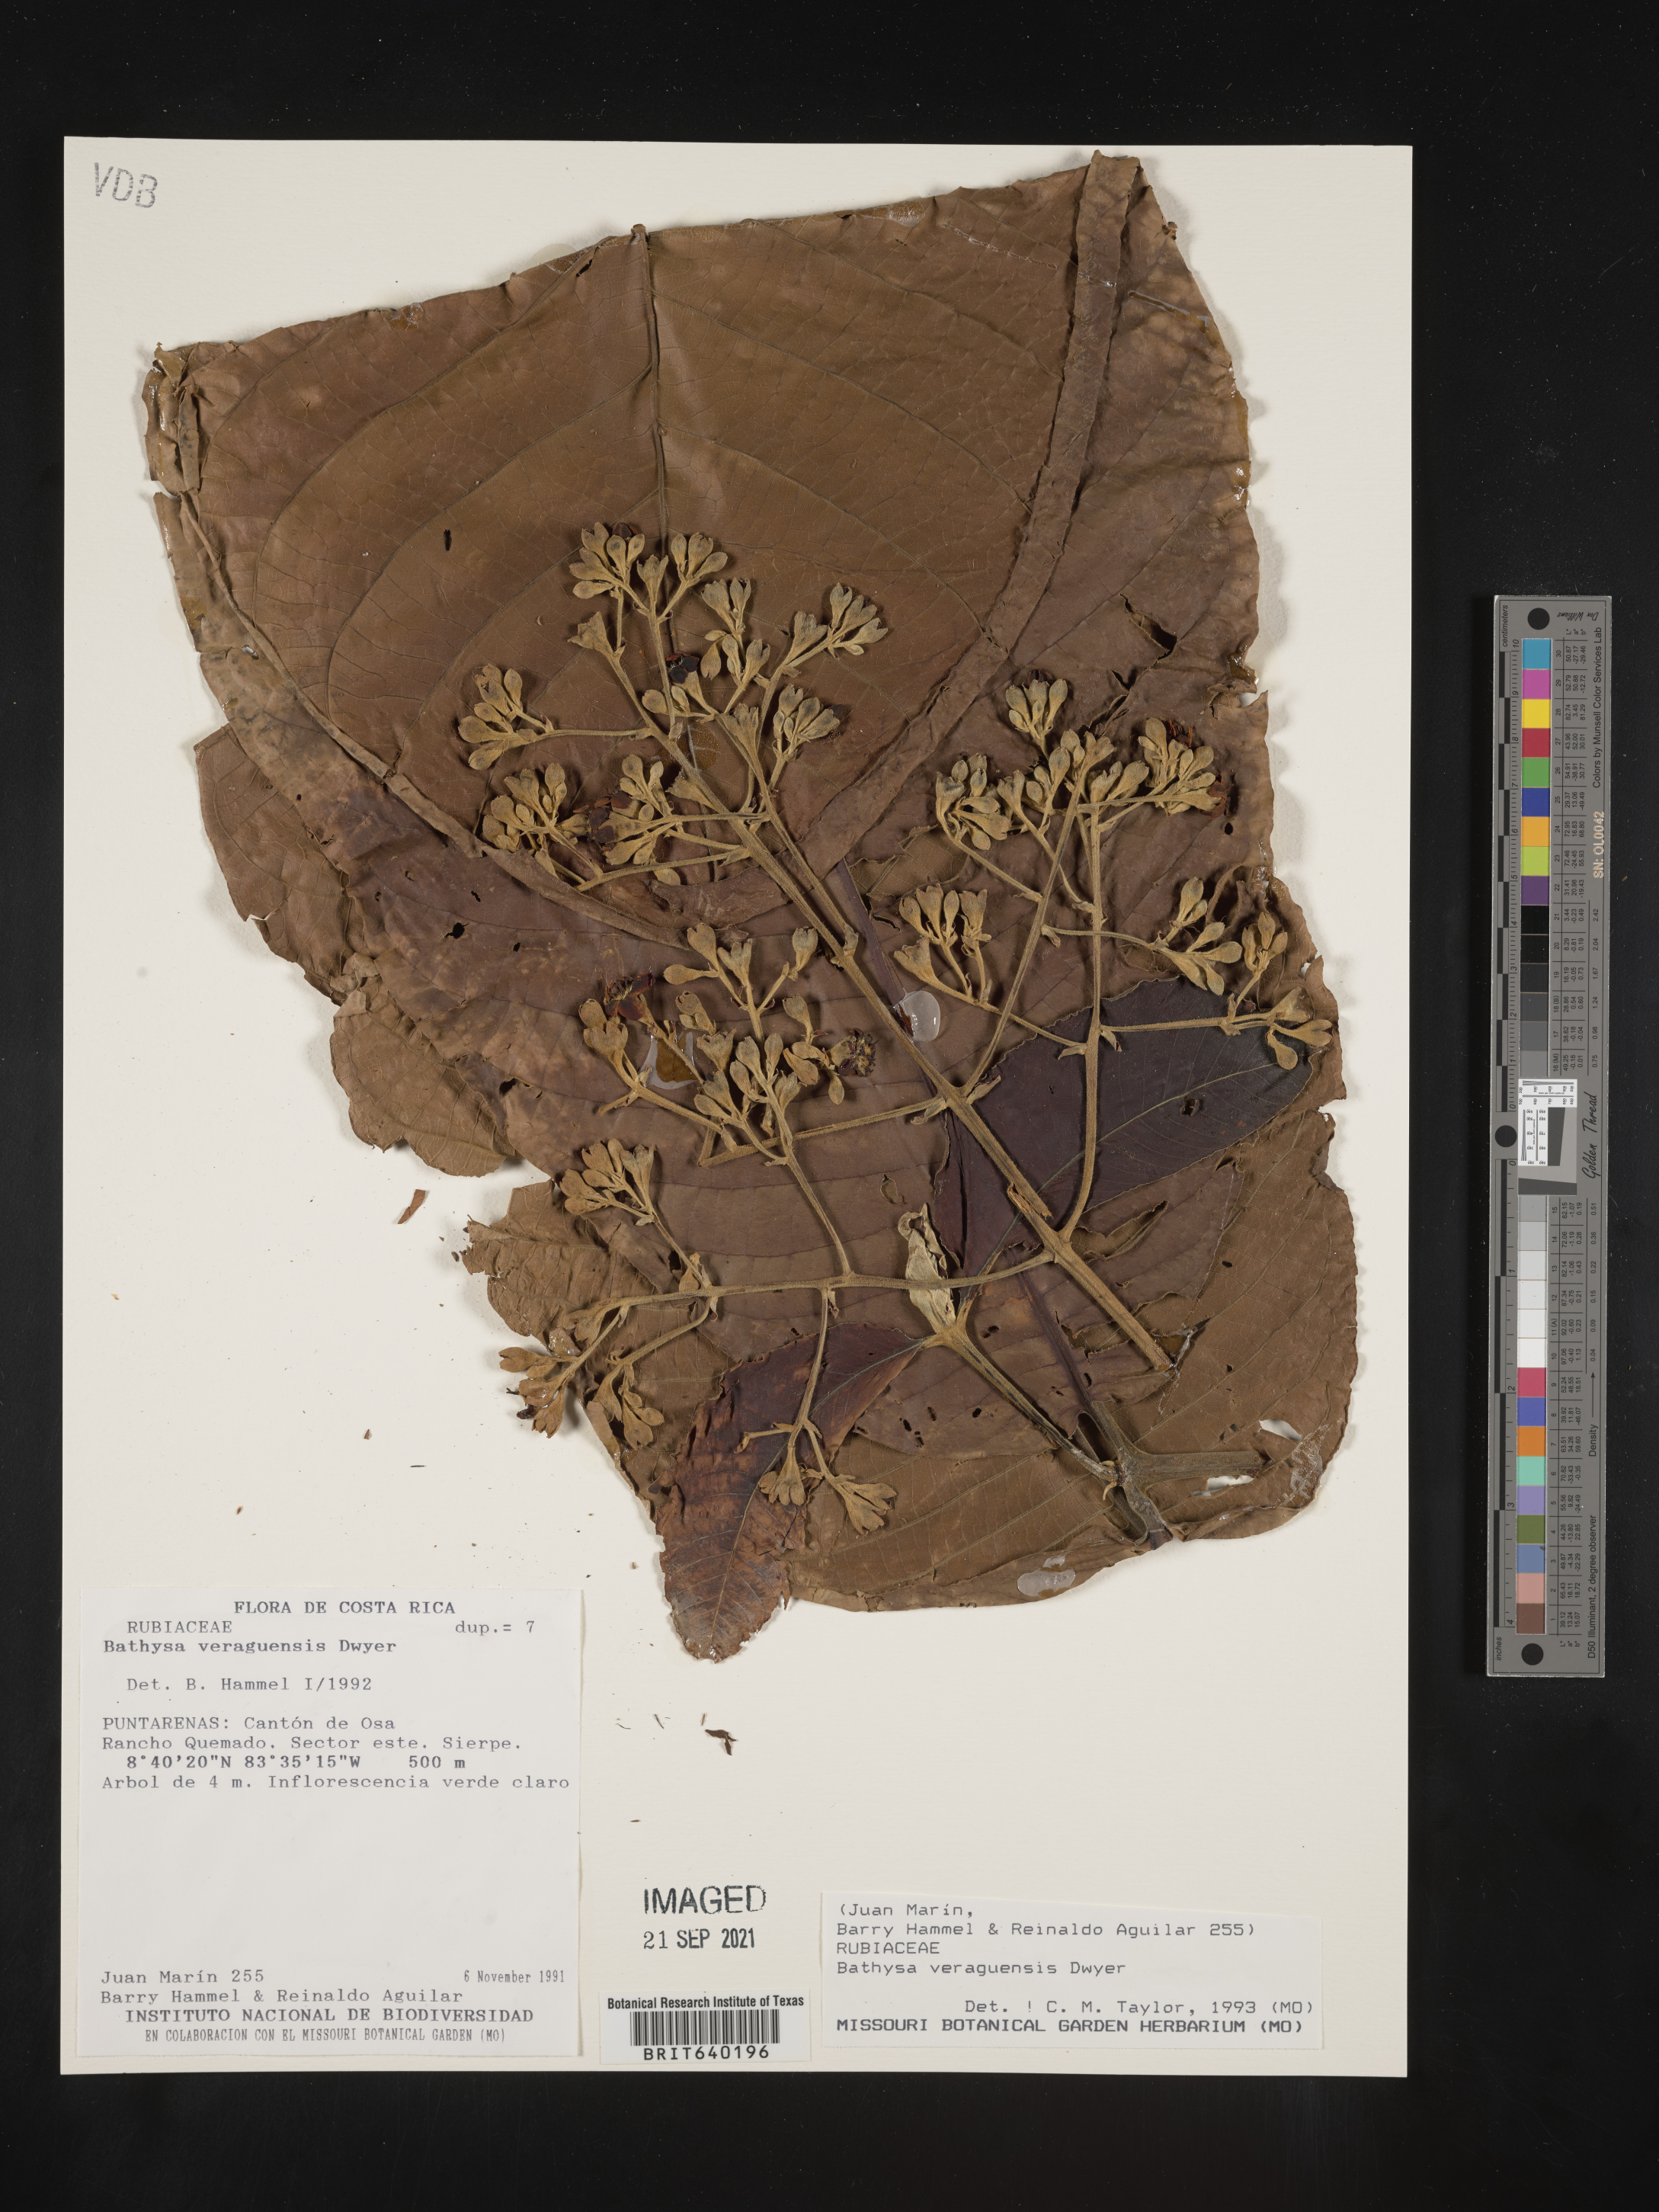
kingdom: Plantae
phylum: Tracheophyta
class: Magnoliopsida
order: Gentianales
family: Rubiaceae
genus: Bathysa
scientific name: Bathysa
